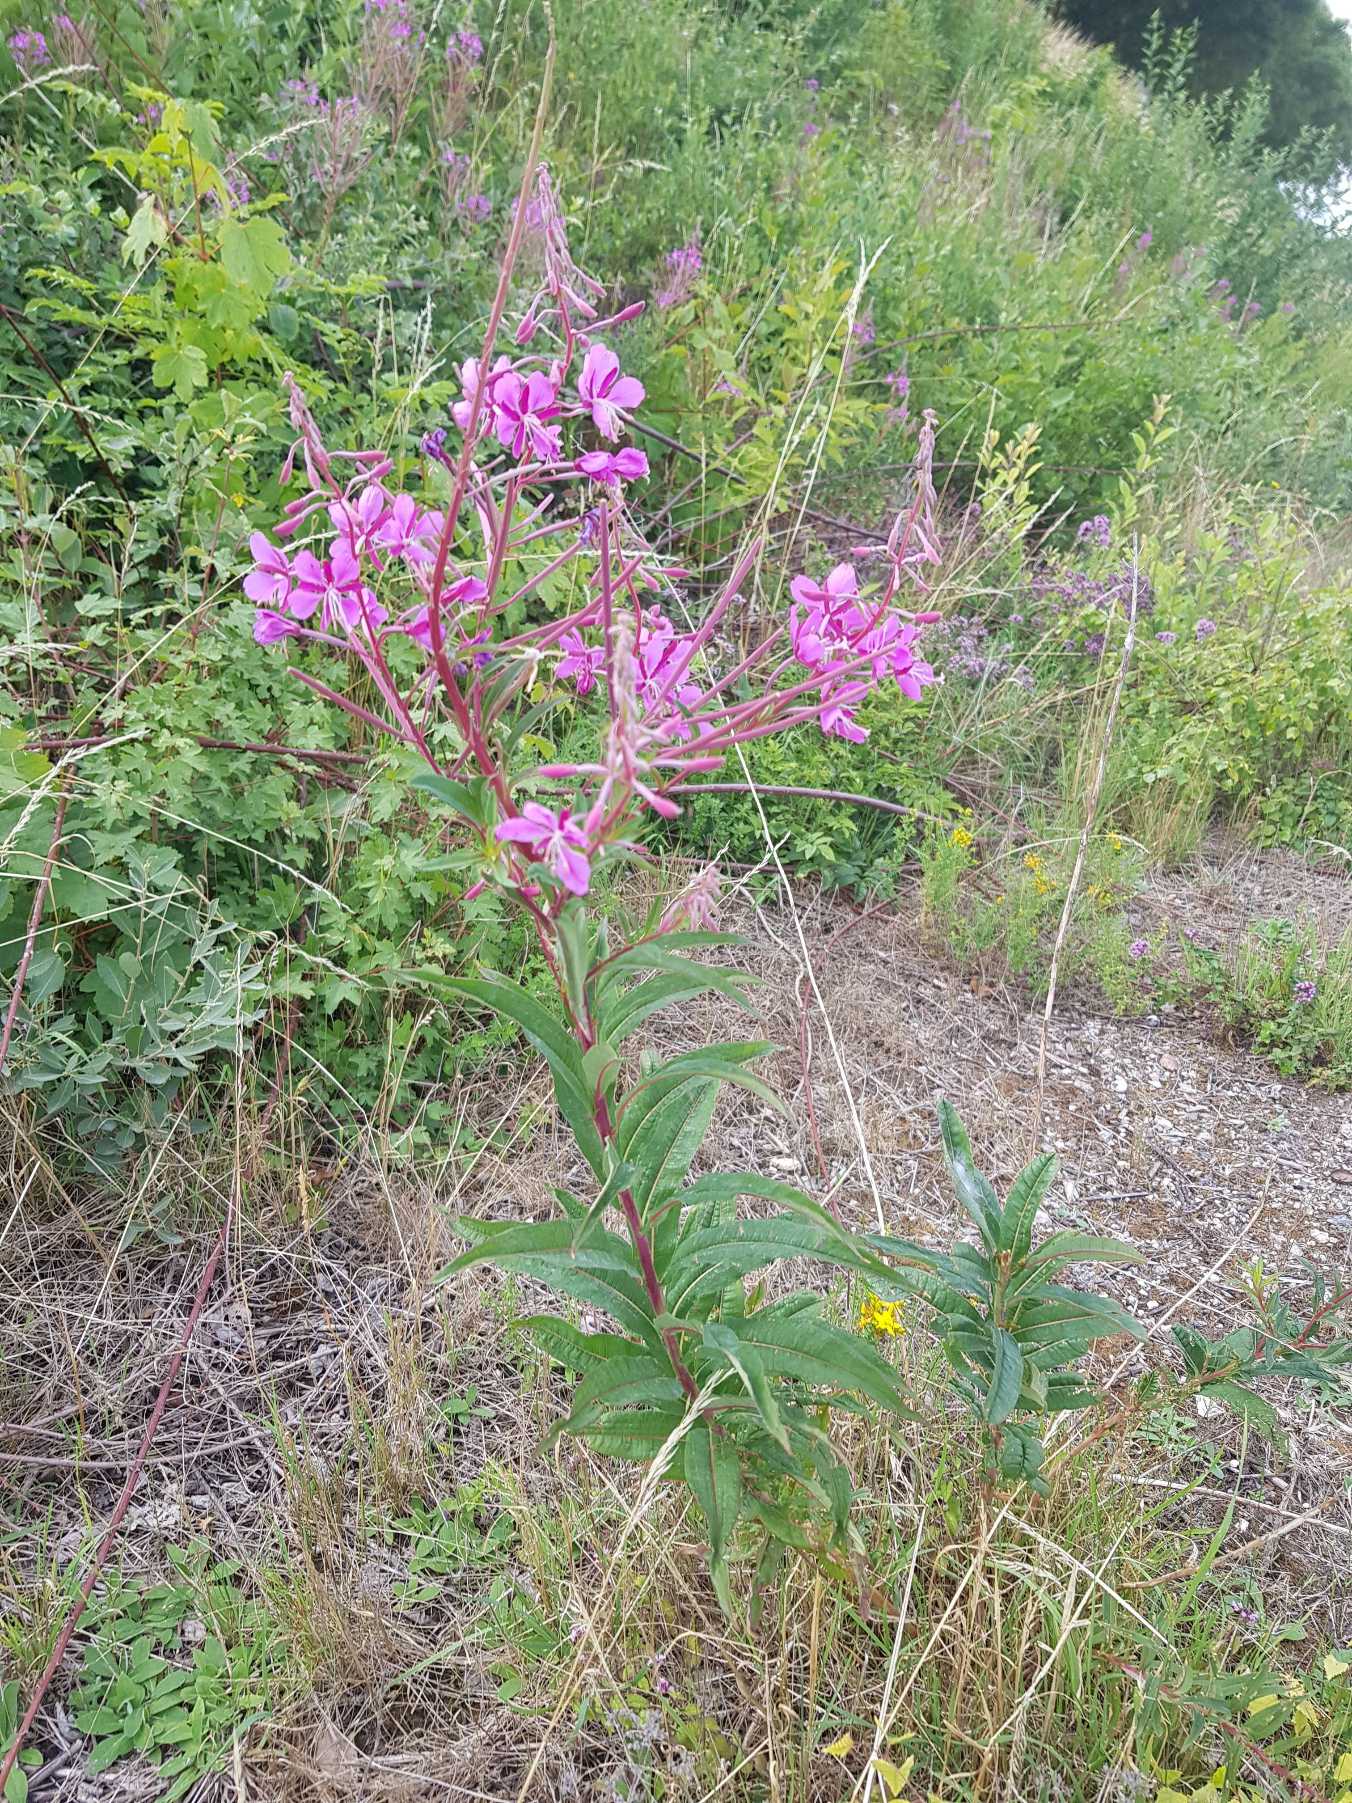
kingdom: Plantae
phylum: Tracheophyta
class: Magnoliopsida
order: Myrtales
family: Onagraceae
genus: Chamaenerion
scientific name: Chamaenerion angustifolium
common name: Gederams
